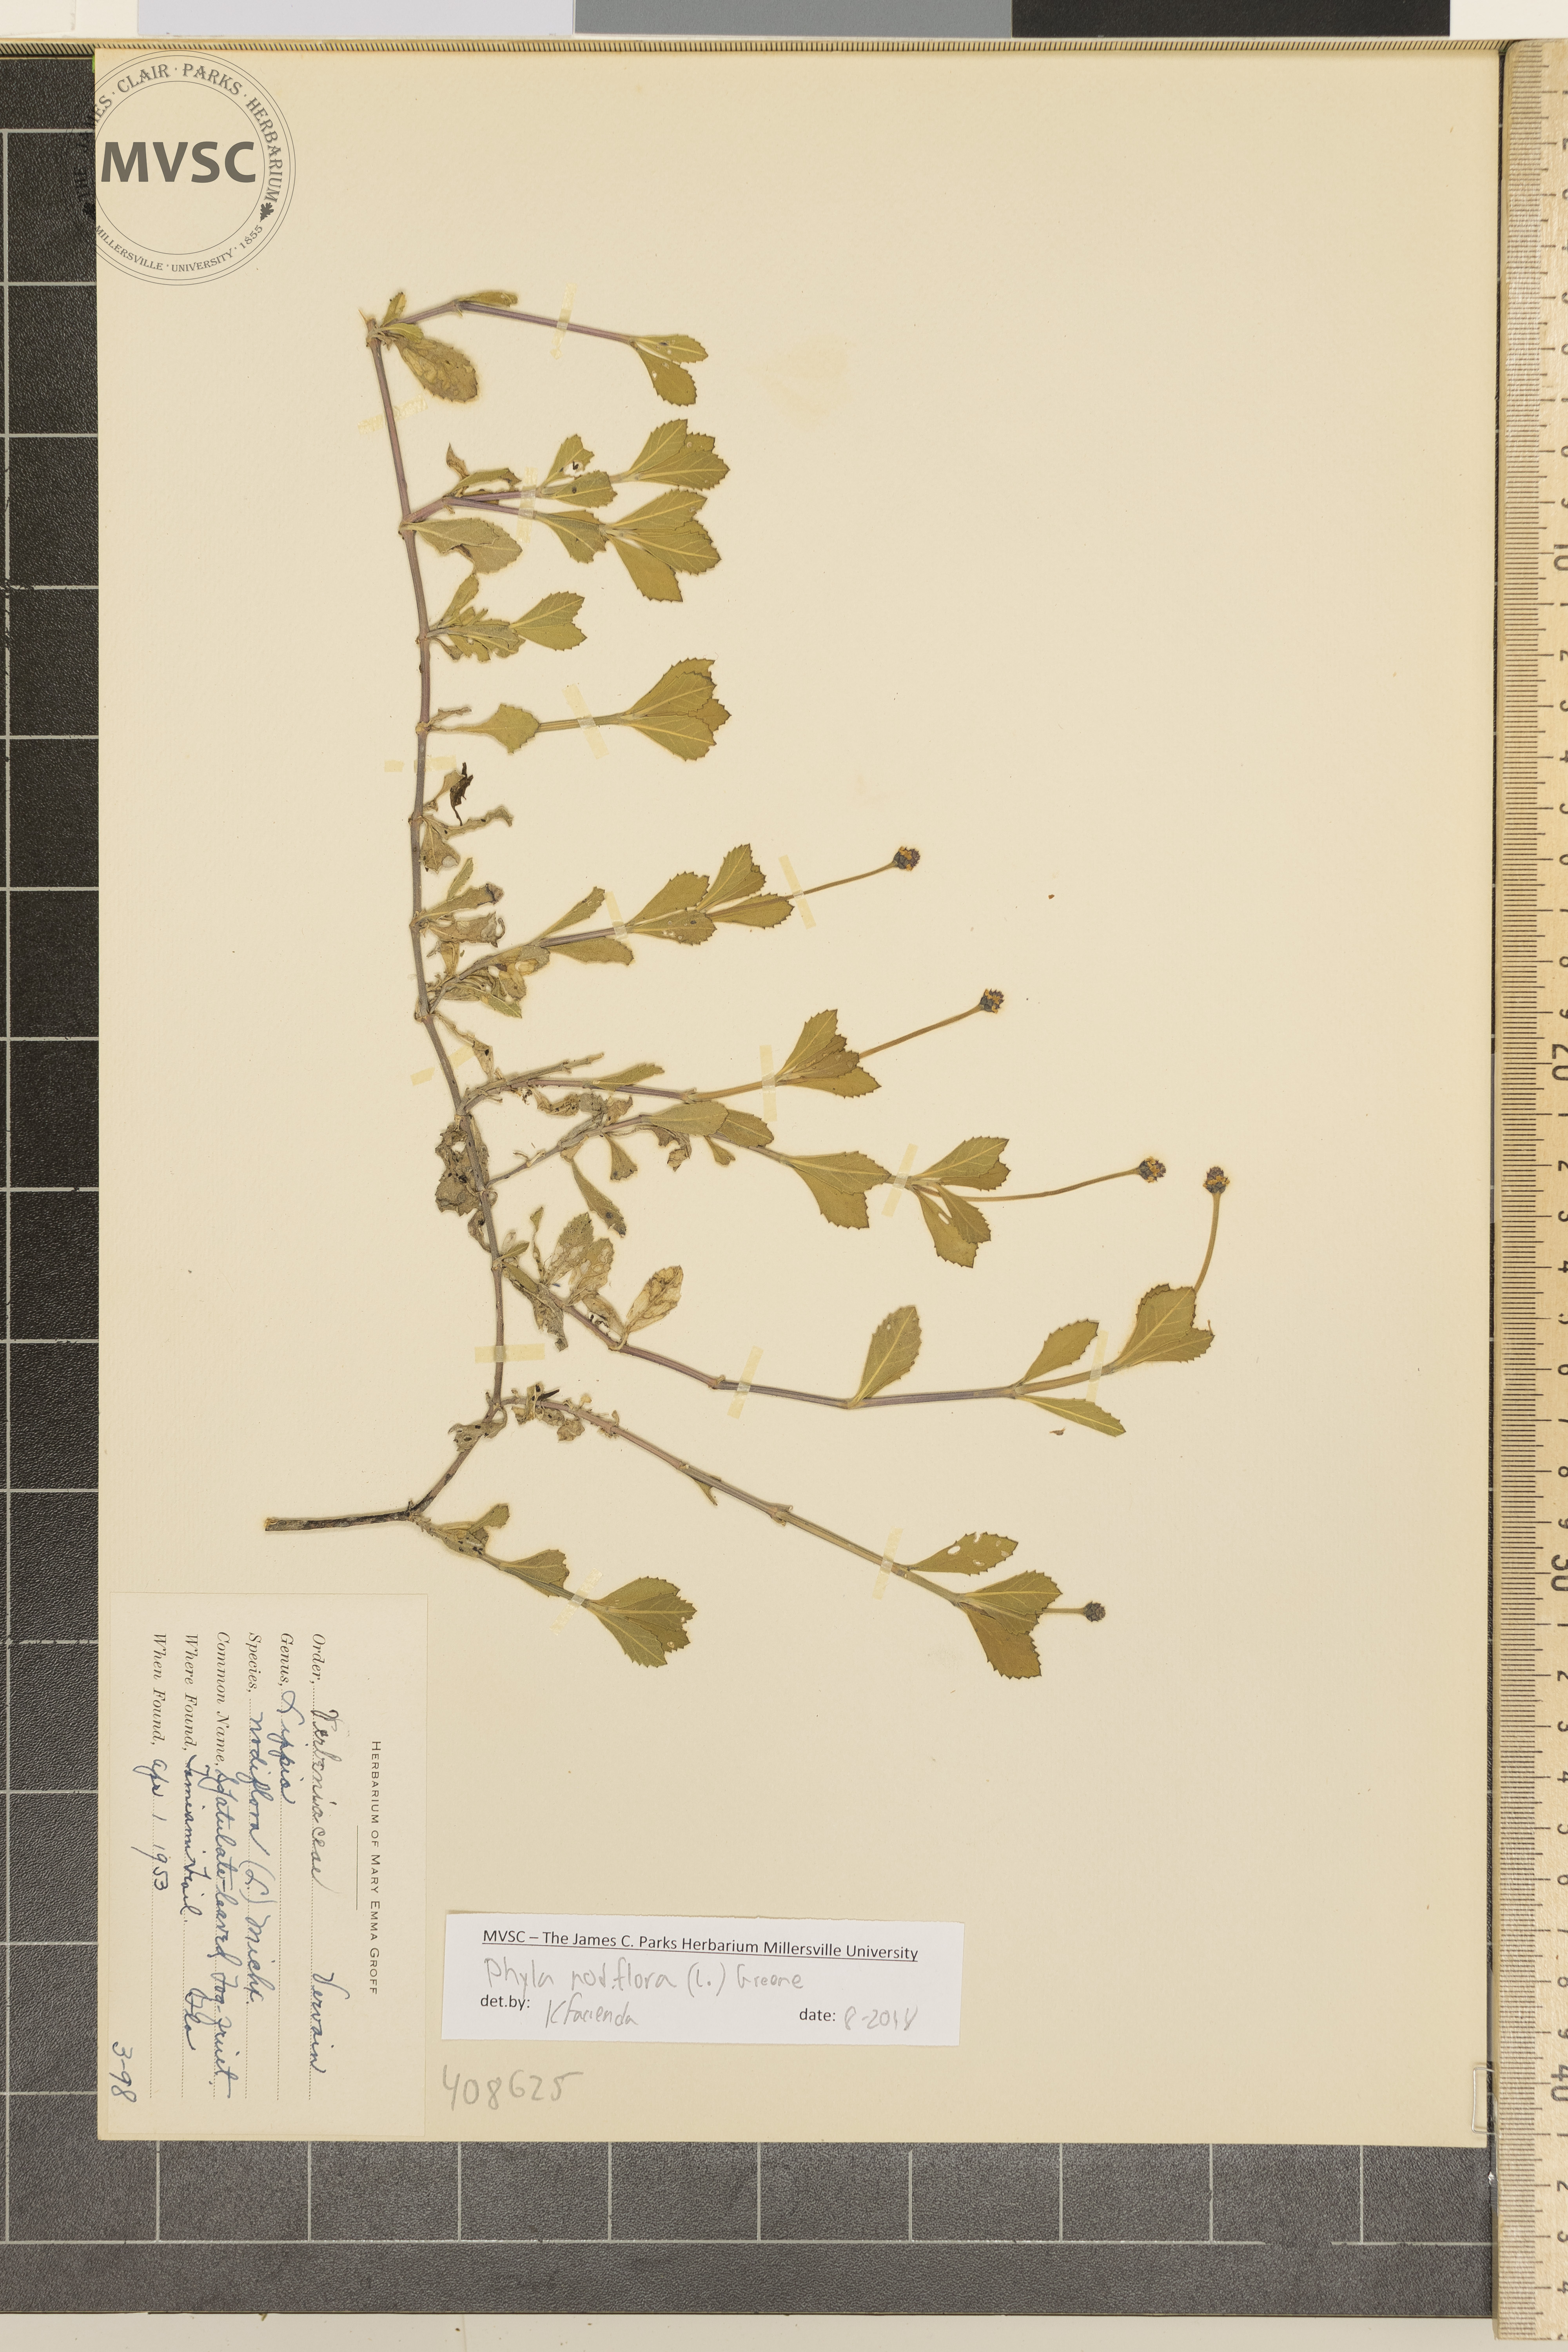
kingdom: Plantae
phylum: Tracheophyta
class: Magnoliopsida
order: Lamiales
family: Verbenaceae
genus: Phyla
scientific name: Phyla nodiflora
